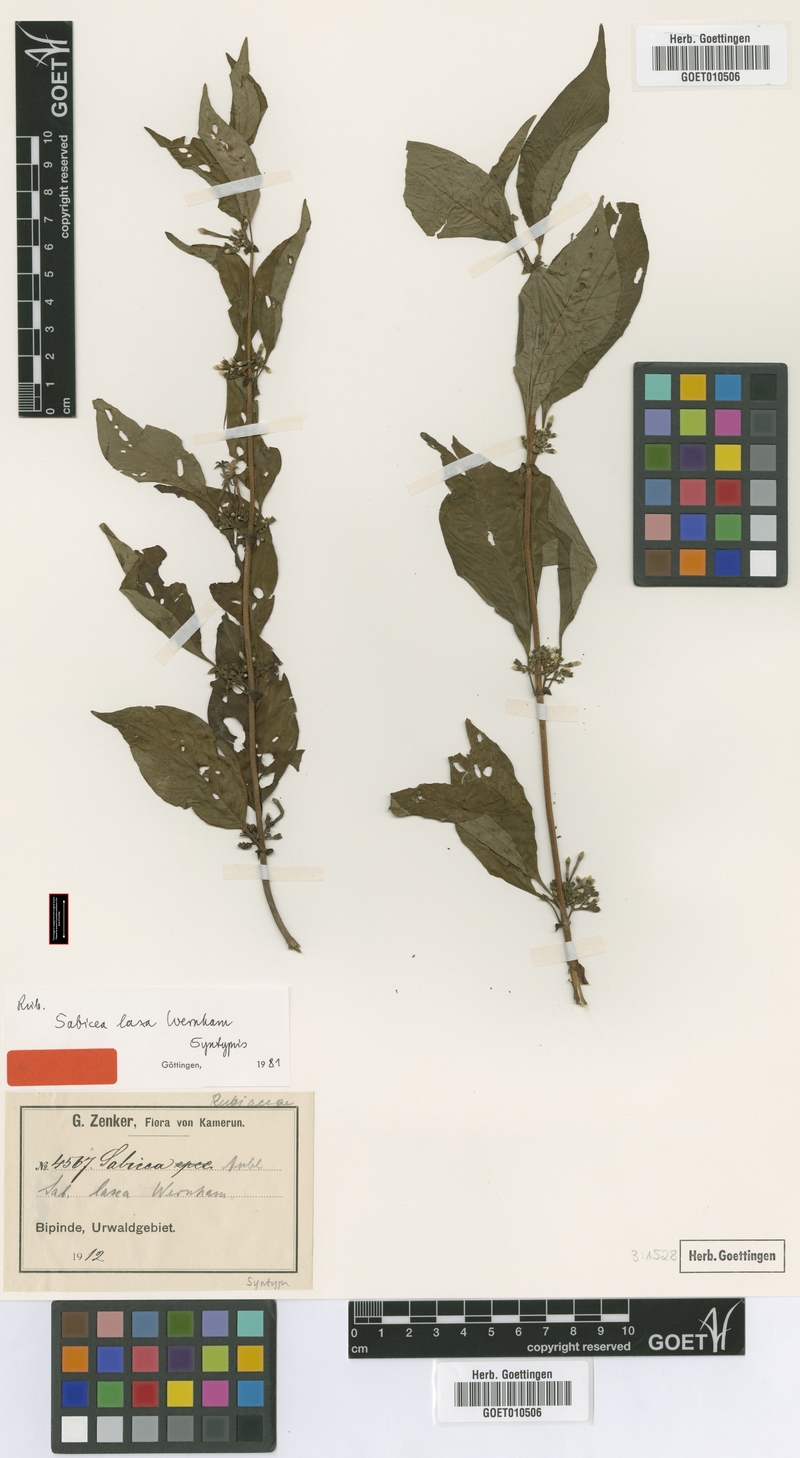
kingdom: Plantae
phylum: Tracheophyta
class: Magnoliopsida
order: Gentianales
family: Rubiaceae
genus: Sabicea
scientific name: Sabicea laxa
